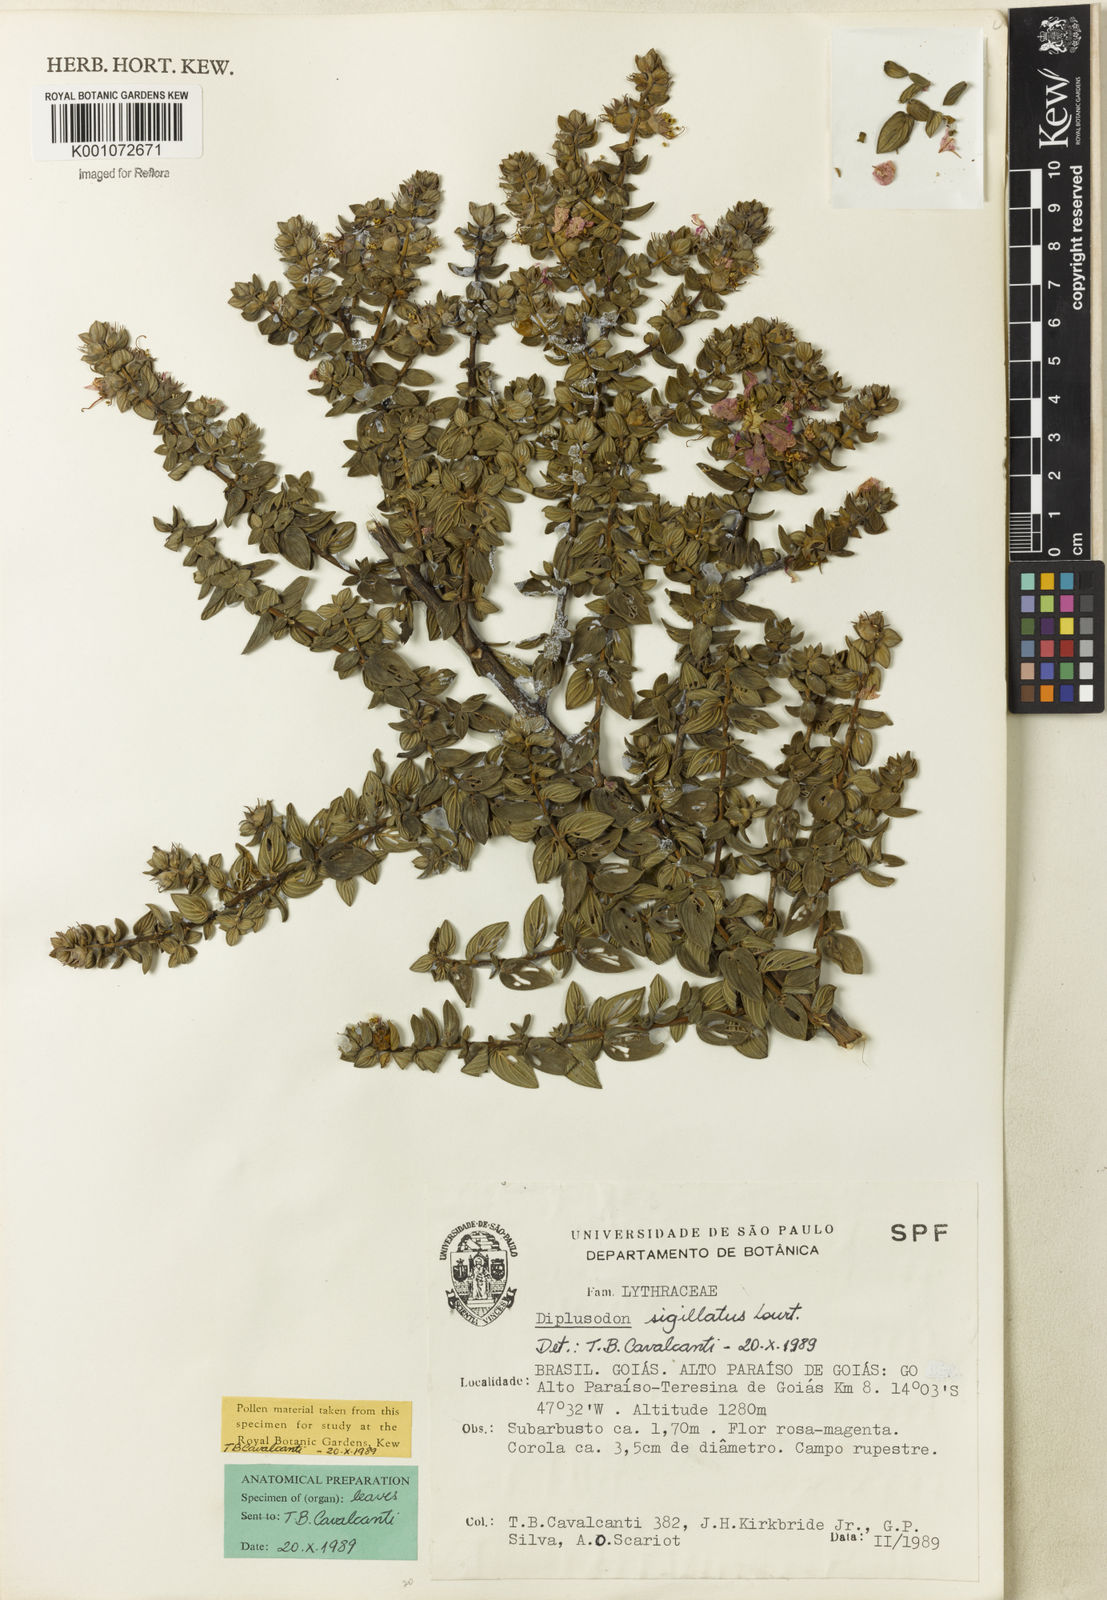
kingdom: Plantae
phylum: Tracheophyta
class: Magnoliopsida
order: Myrtales
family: Lythraceae
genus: Diplusodon
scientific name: Diplusodon sigillatus
